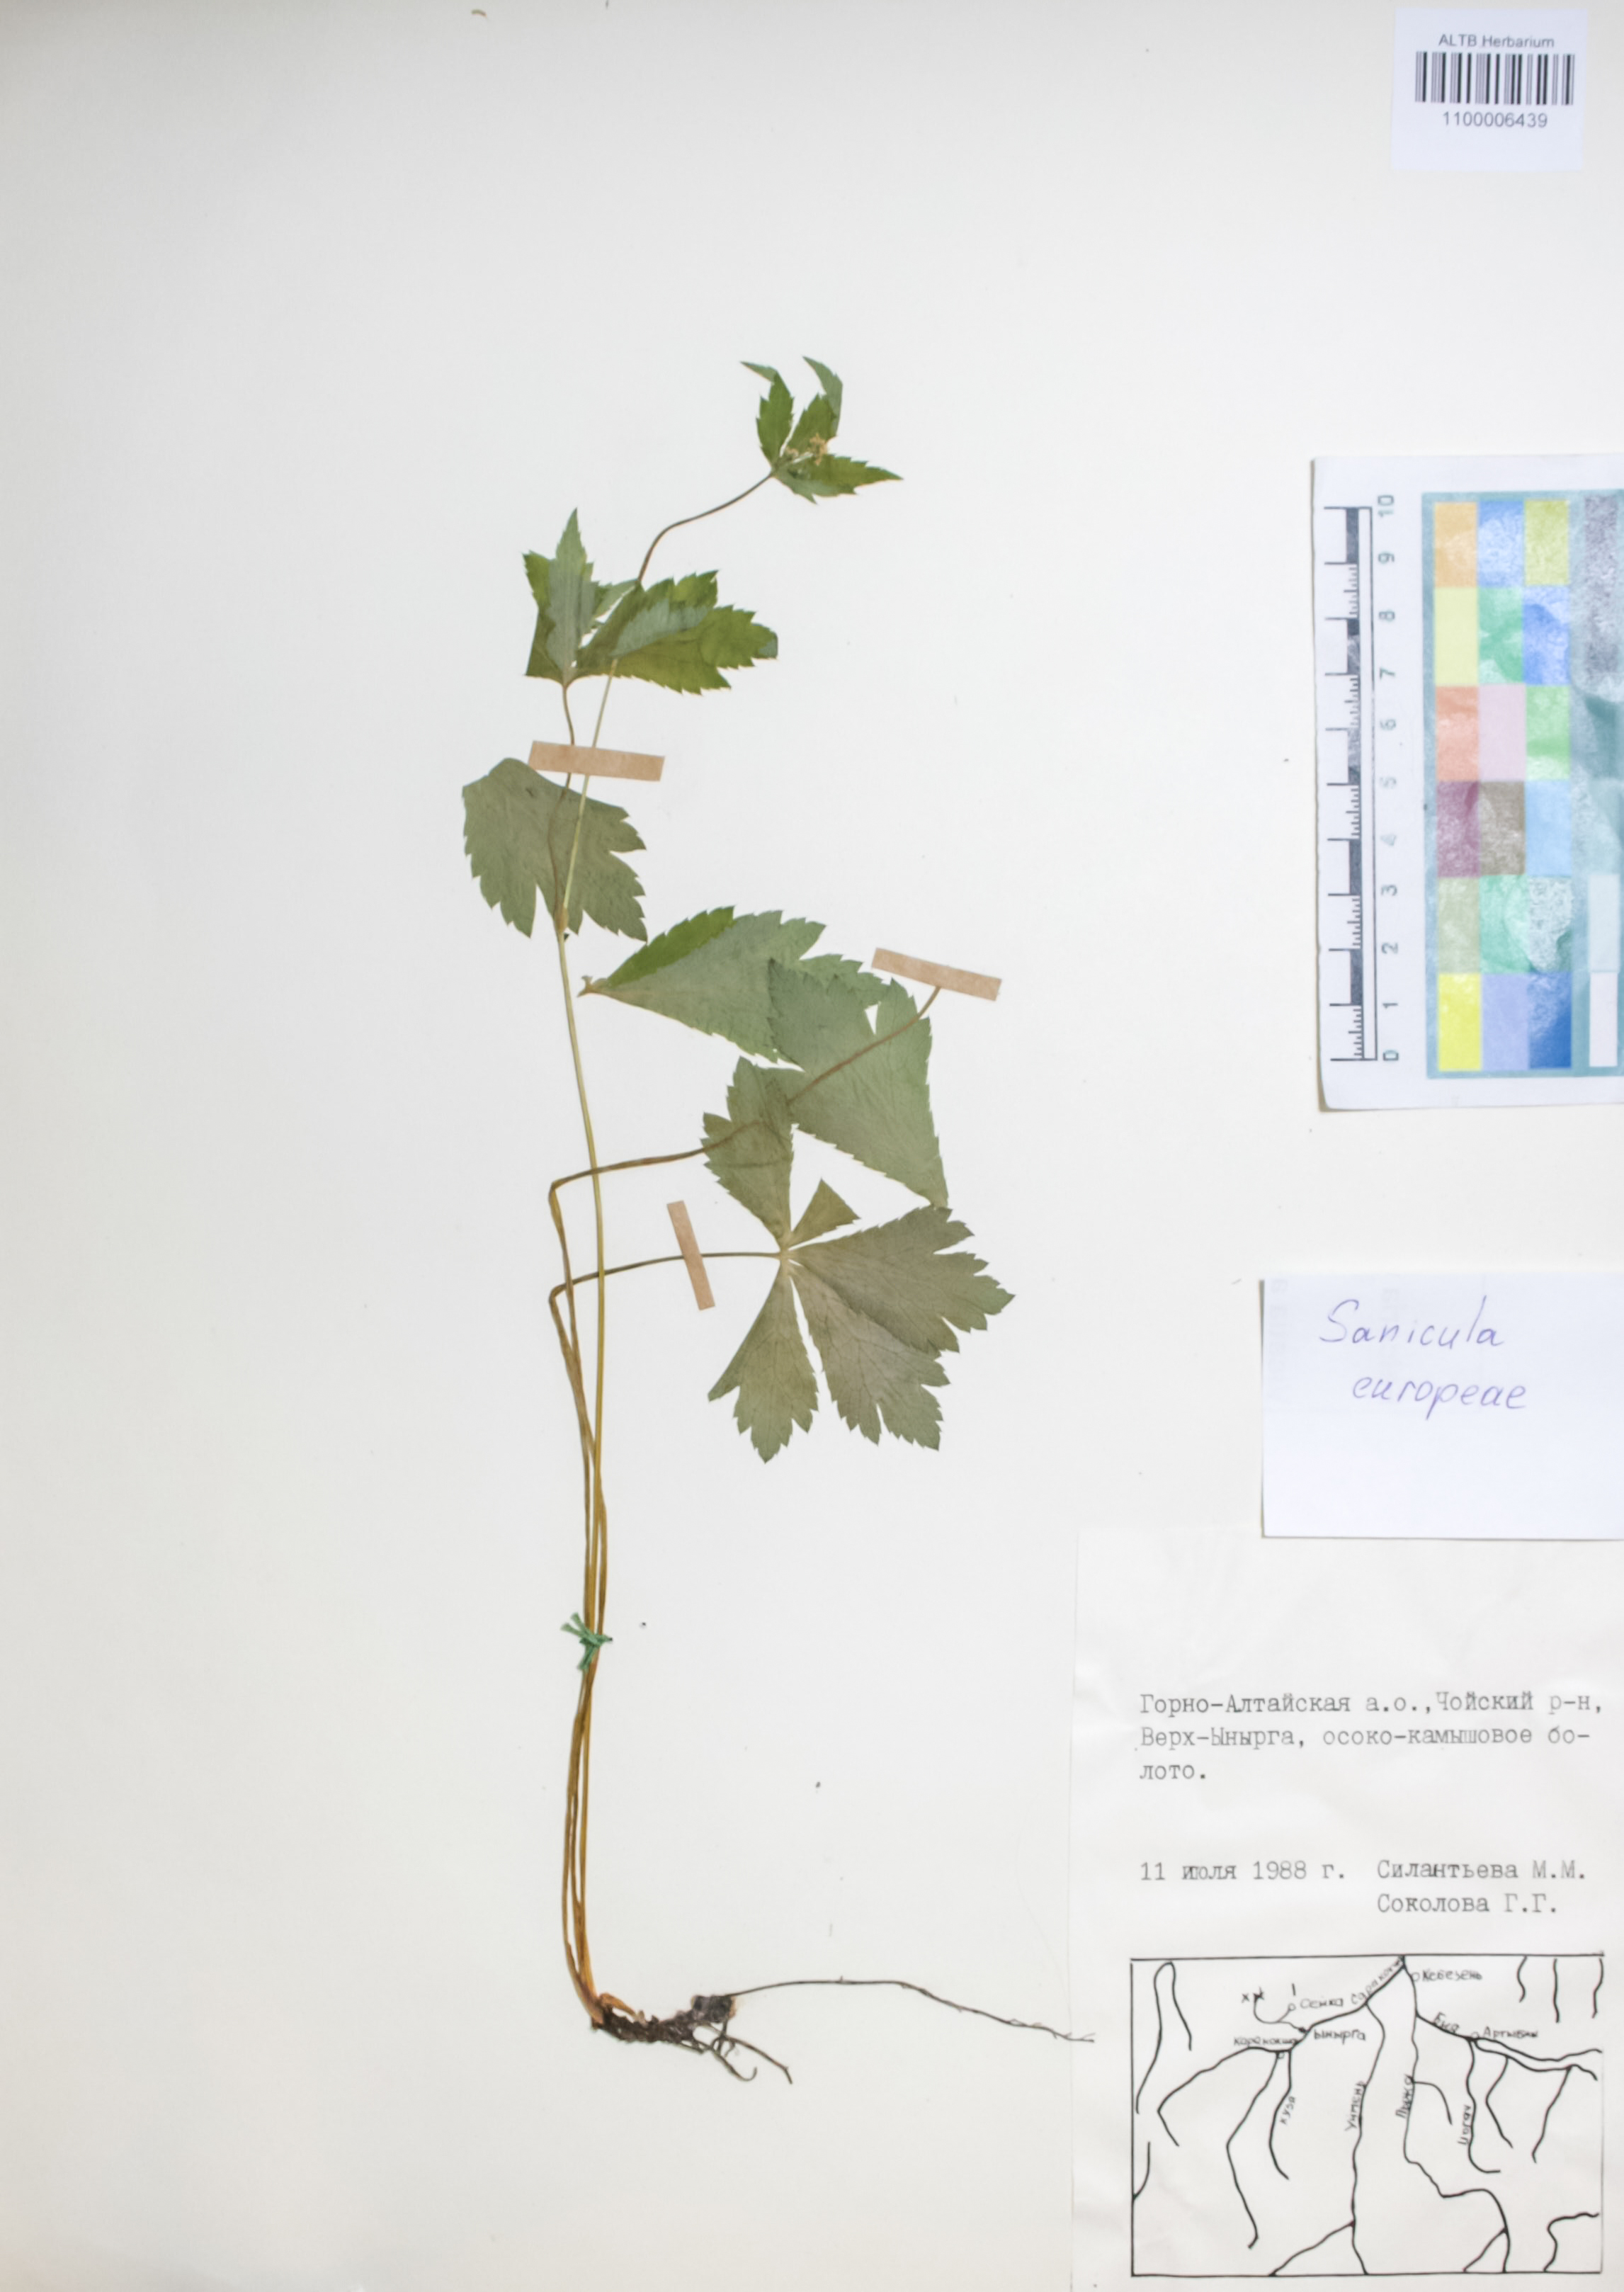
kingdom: Plantae
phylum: Tracheophyta
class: Magnoliopsida
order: Apiales
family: Apiaceae
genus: Sanicula
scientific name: Sanicula europaea
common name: Sanicle
